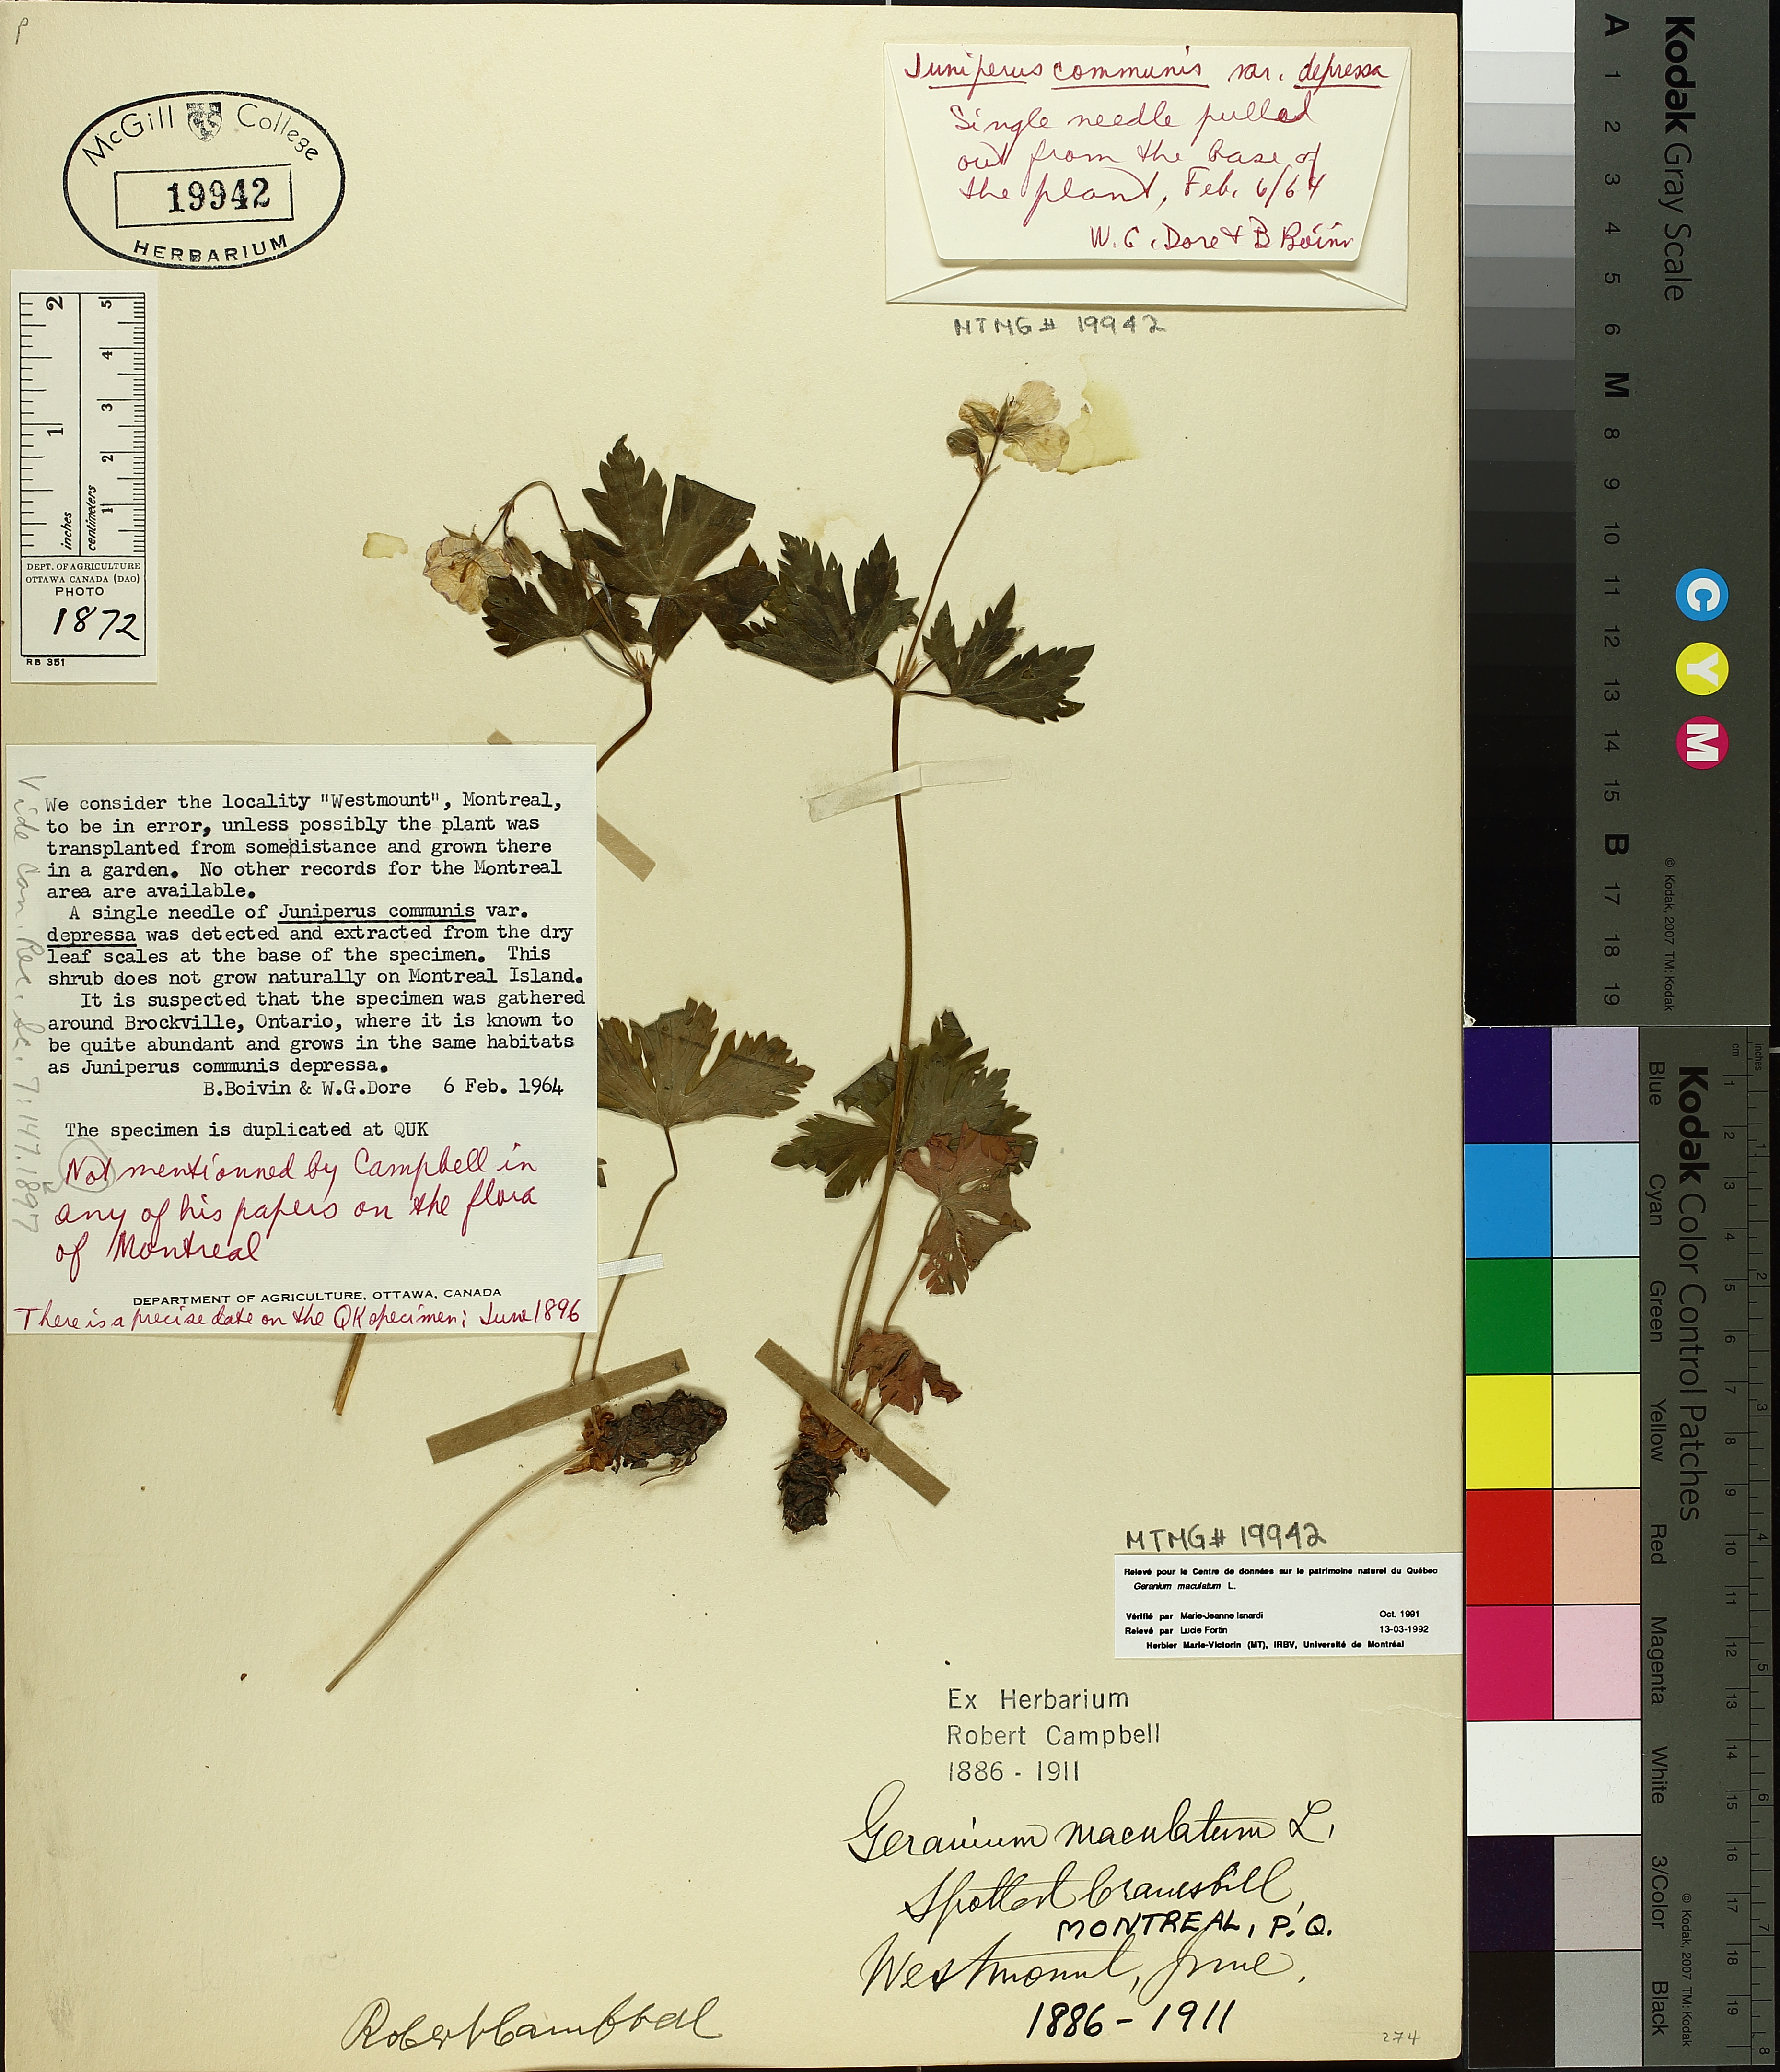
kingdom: Plantae
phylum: Tracheophyta
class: Magnoliopsida
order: Geraniales
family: Geraniaceae
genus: Geranium
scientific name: Geranium maculatum
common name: Spotted geranium
